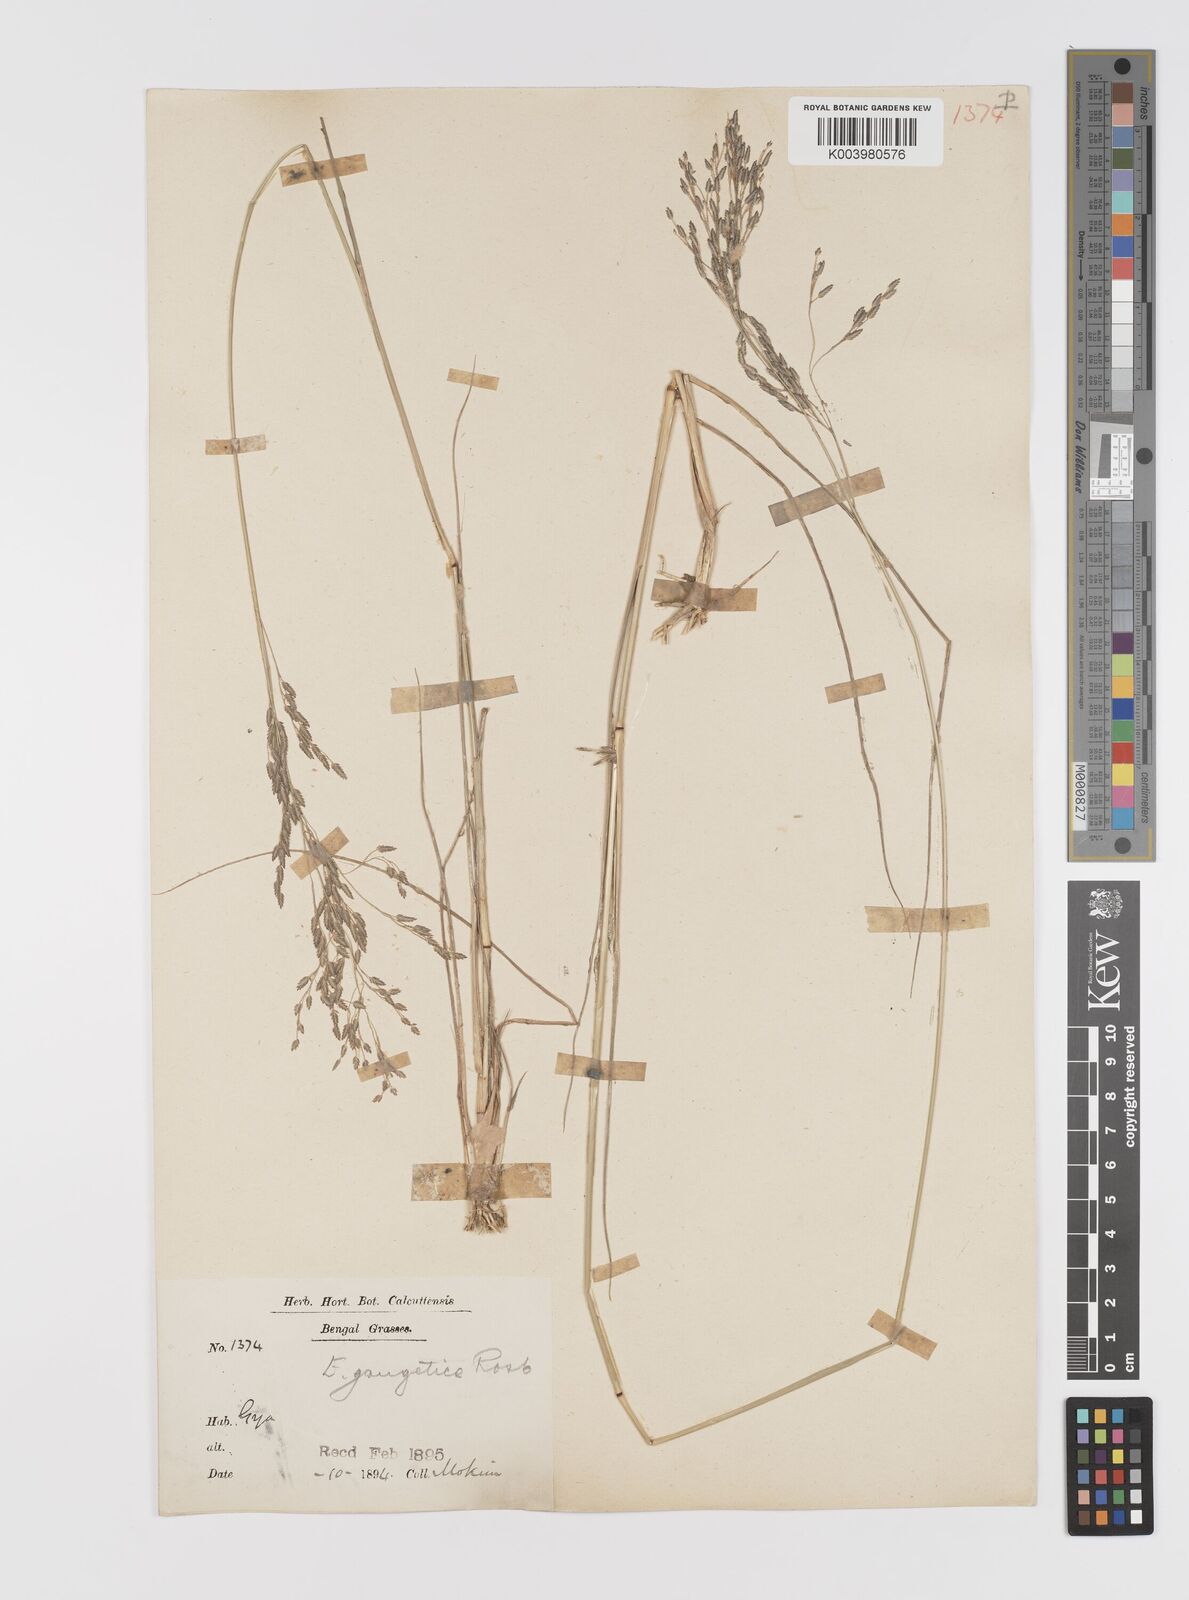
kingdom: Plantae
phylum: Tracheophyta
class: Liliopsida
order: Poales
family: Poaceae
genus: Eragrostis
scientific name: Eragrostis atrovirens
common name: Thalia lovegrass
